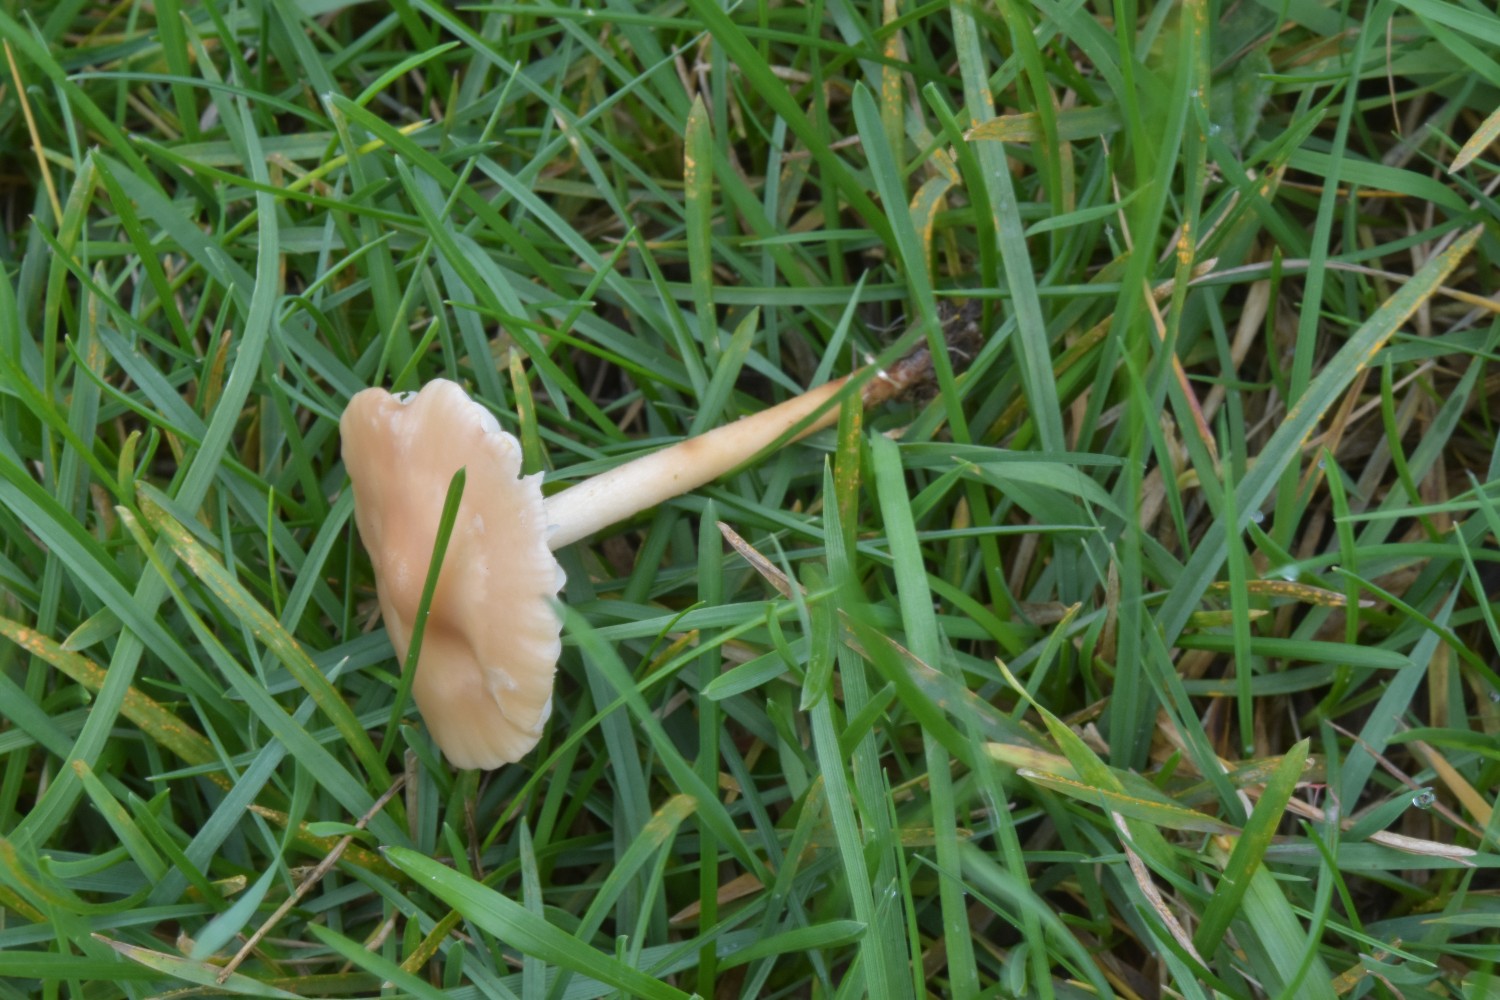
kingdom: Fungi
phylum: Basidiomycota
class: Agaricomycetes
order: Agaricales
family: Marasmiaceae
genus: Marasmius
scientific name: Marasmius oreades
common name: elledans-bruskhat
